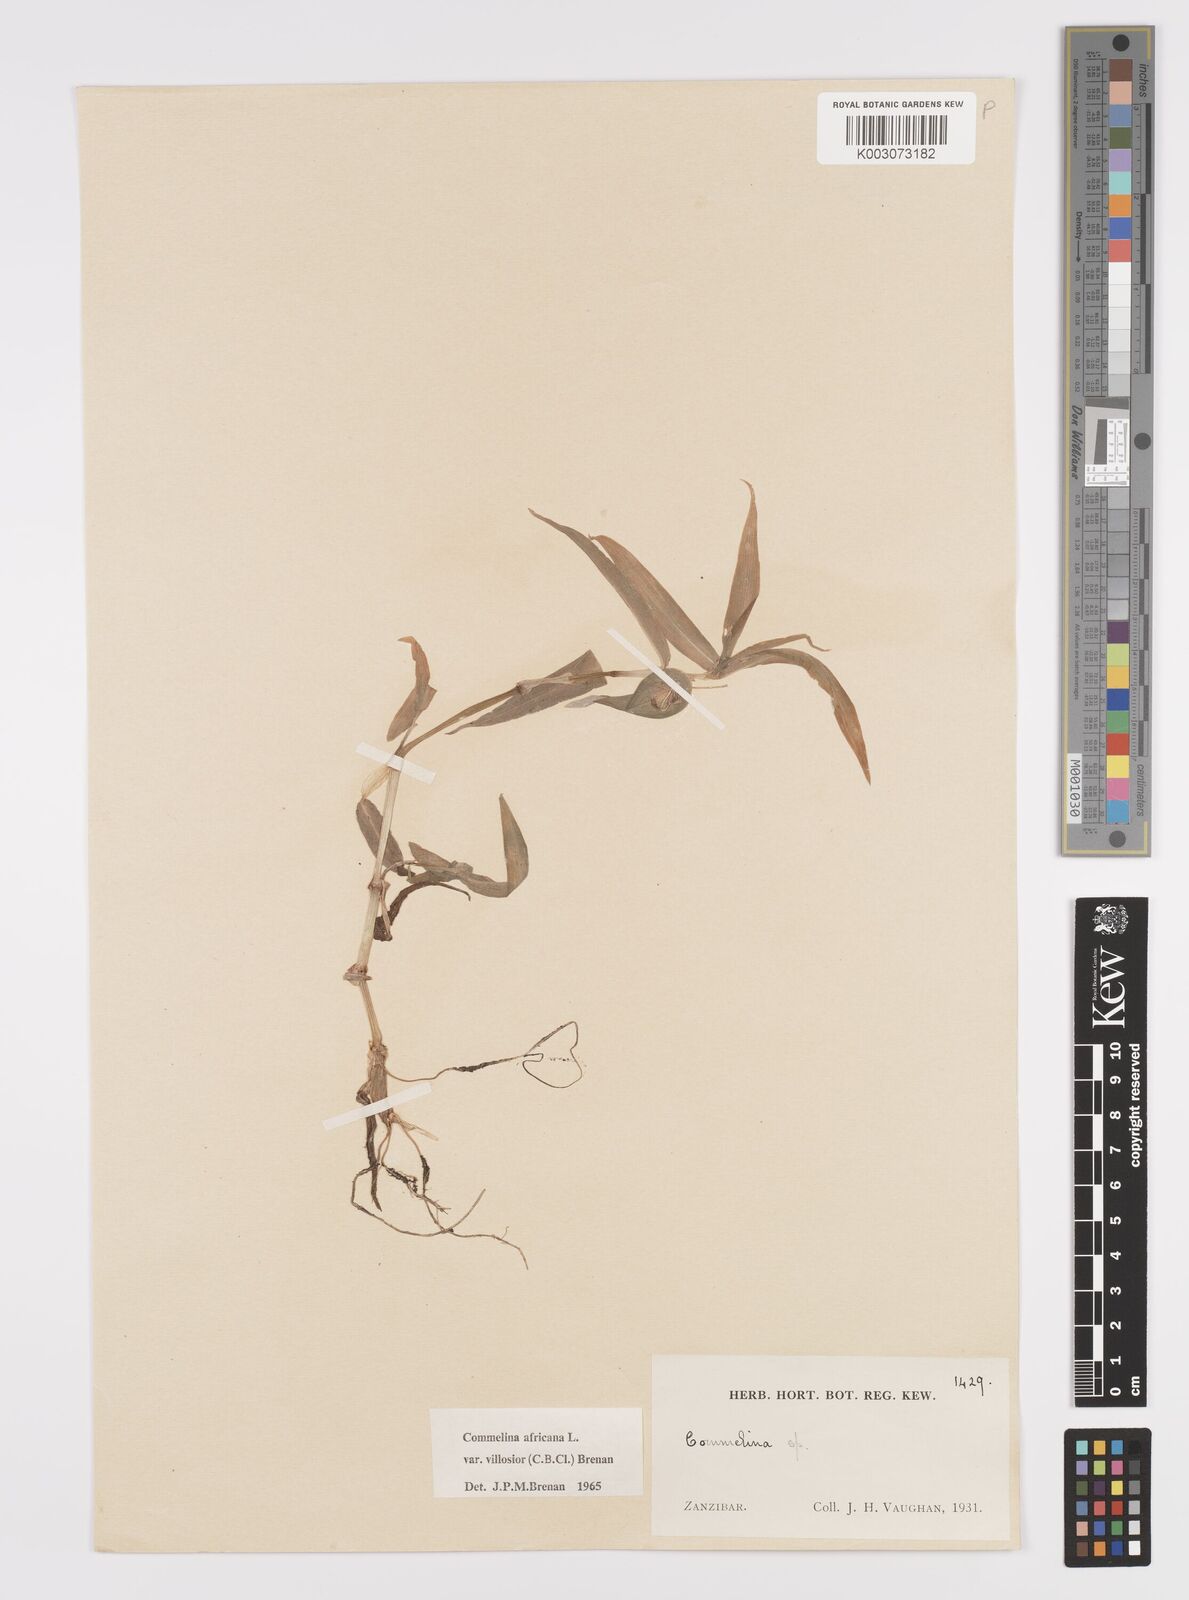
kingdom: Plantae
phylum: Tracheophyta
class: Liliopsida
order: Commelinales
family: Commelinaceae
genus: Commelina
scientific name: Commelina africana
